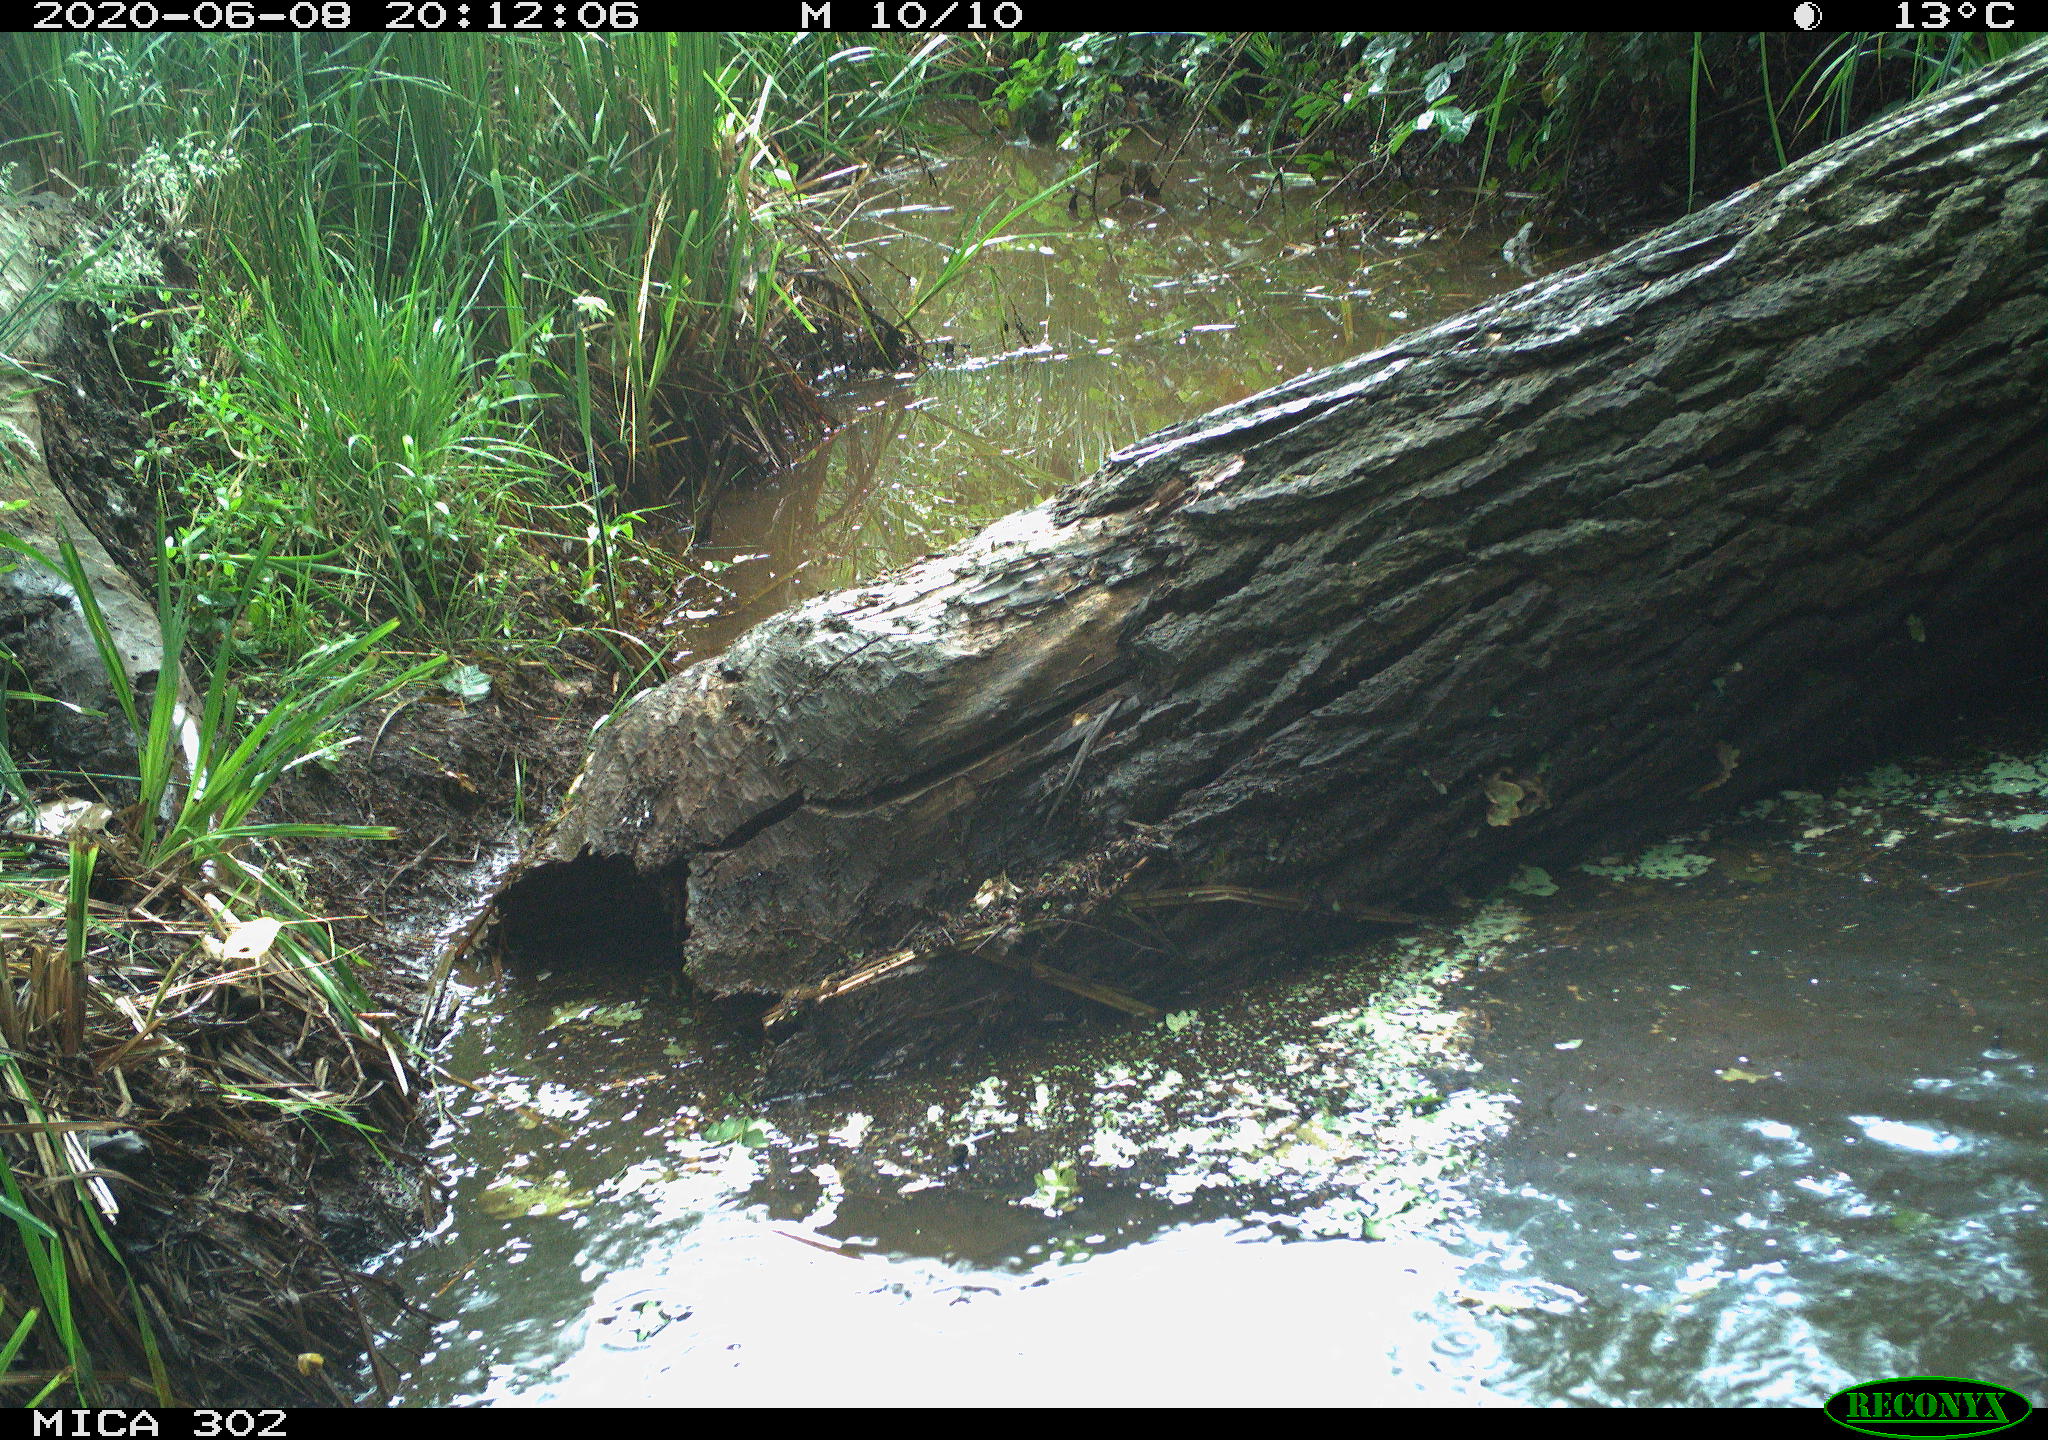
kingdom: Animalia
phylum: Chordata
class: Aves
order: Anseriformes
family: Anatidae
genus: Anser
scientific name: Anser anser
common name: Greylag goose
